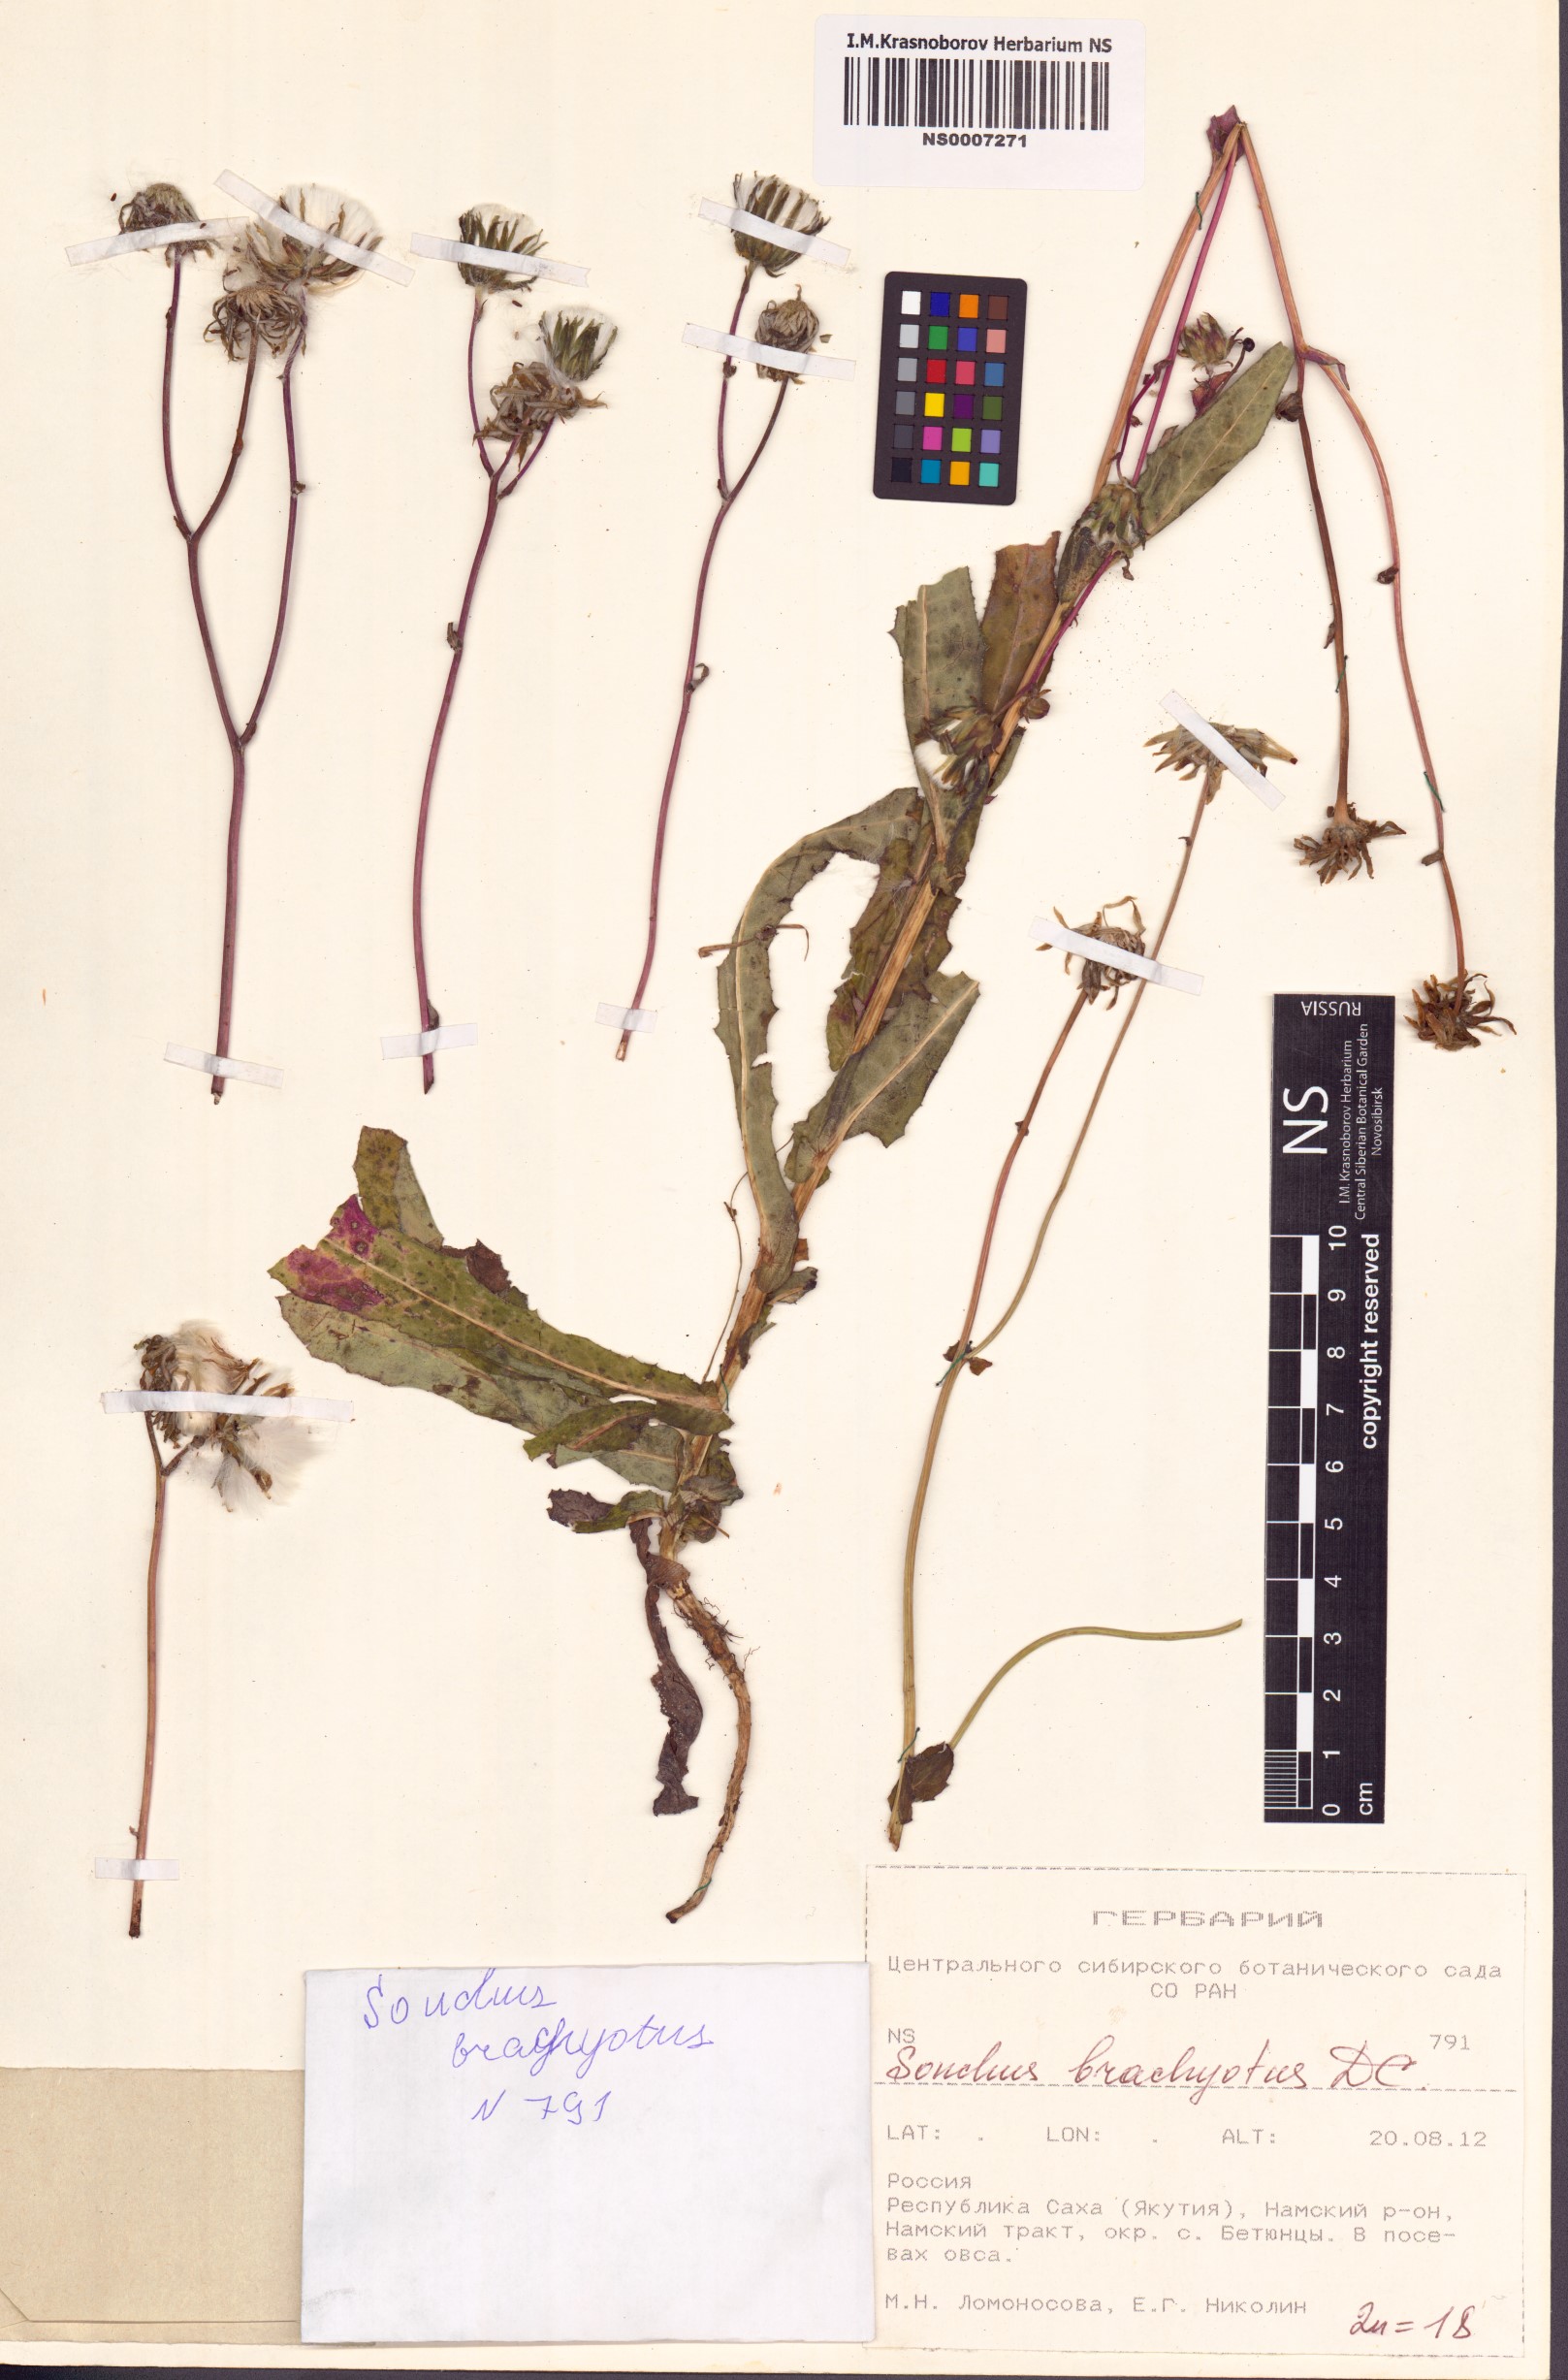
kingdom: Plantae
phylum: Tracheophyta
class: Magnoliopsida
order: Asterales
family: Asteraceae
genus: Sonchus
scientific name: Sonchus brachyotus
